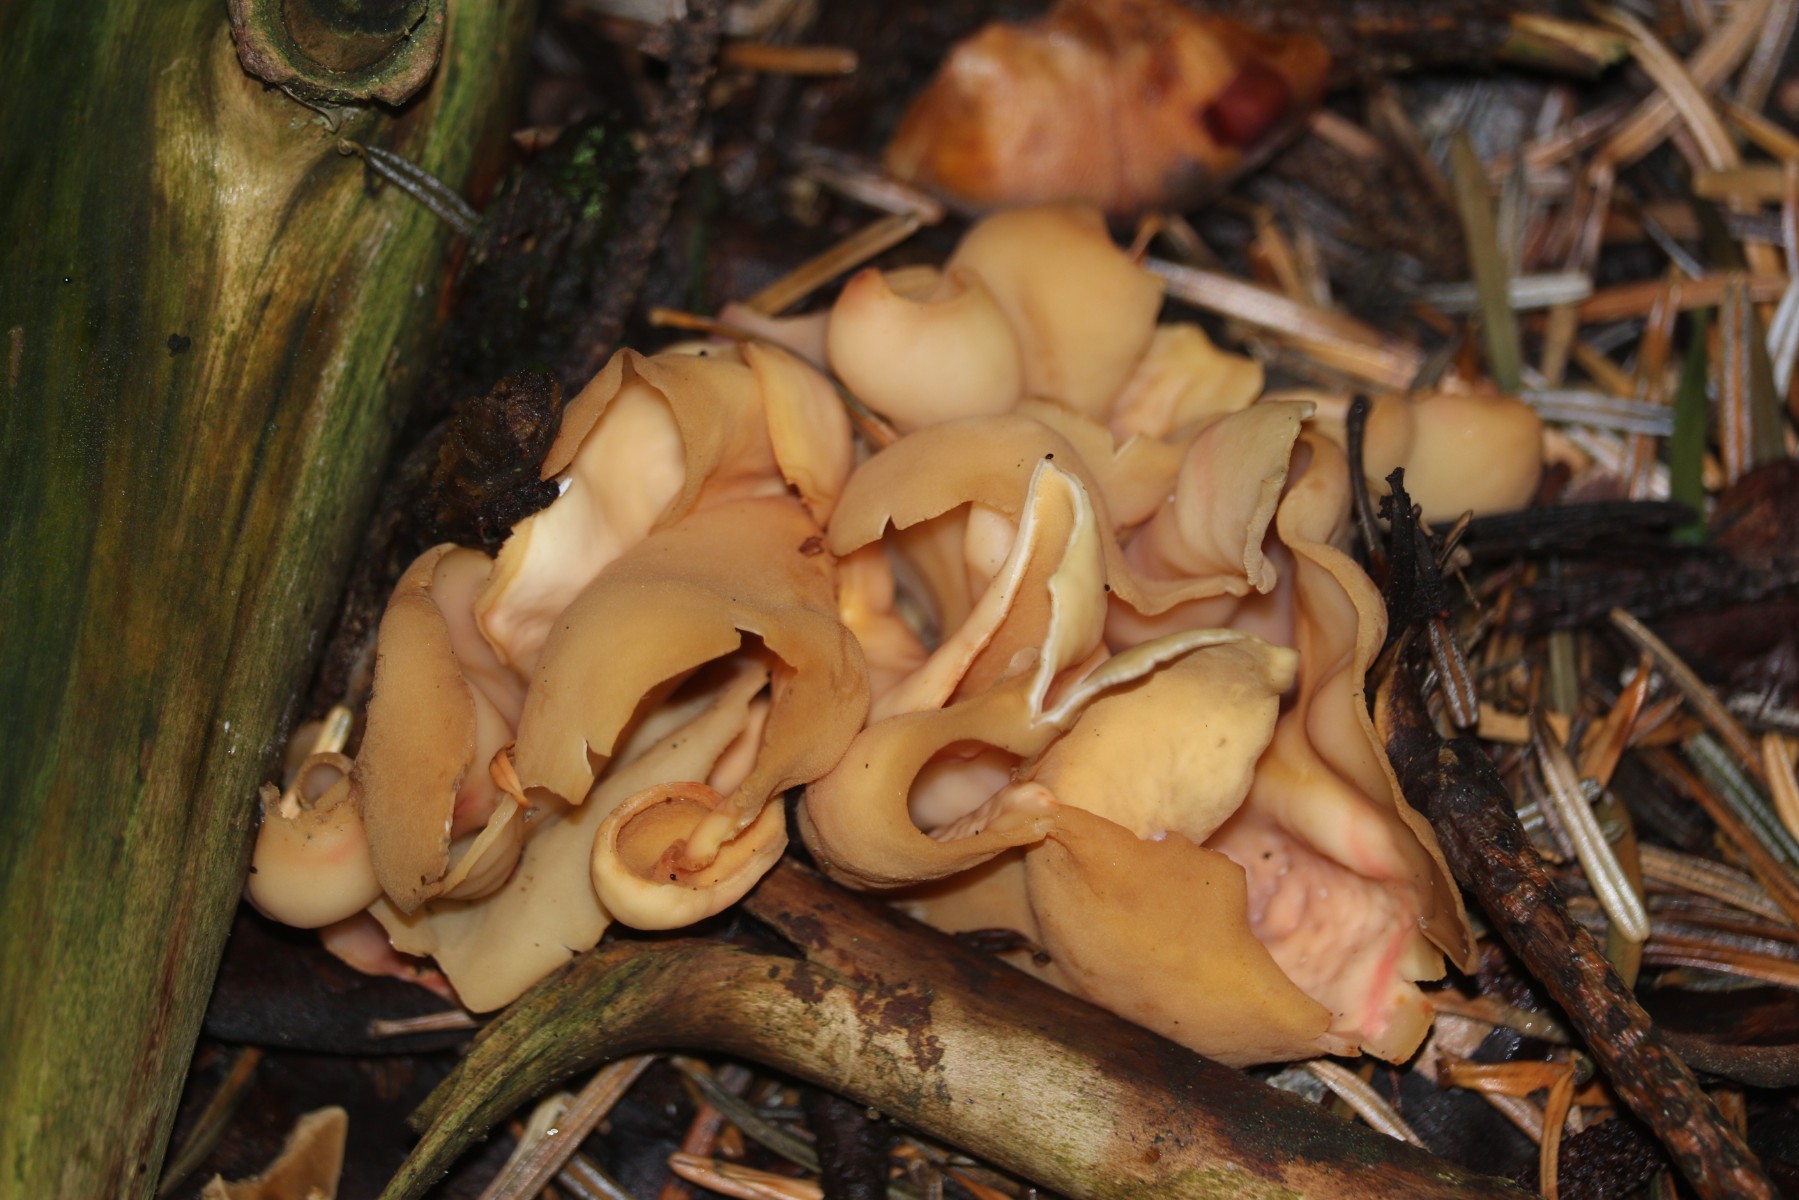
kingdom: Fungi
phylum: Ascomycota
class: Pezizomycetes
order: Pezizales
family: Otideaceae
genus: Otidea
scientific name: Otidea onotica
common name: æsel-ørebæger
